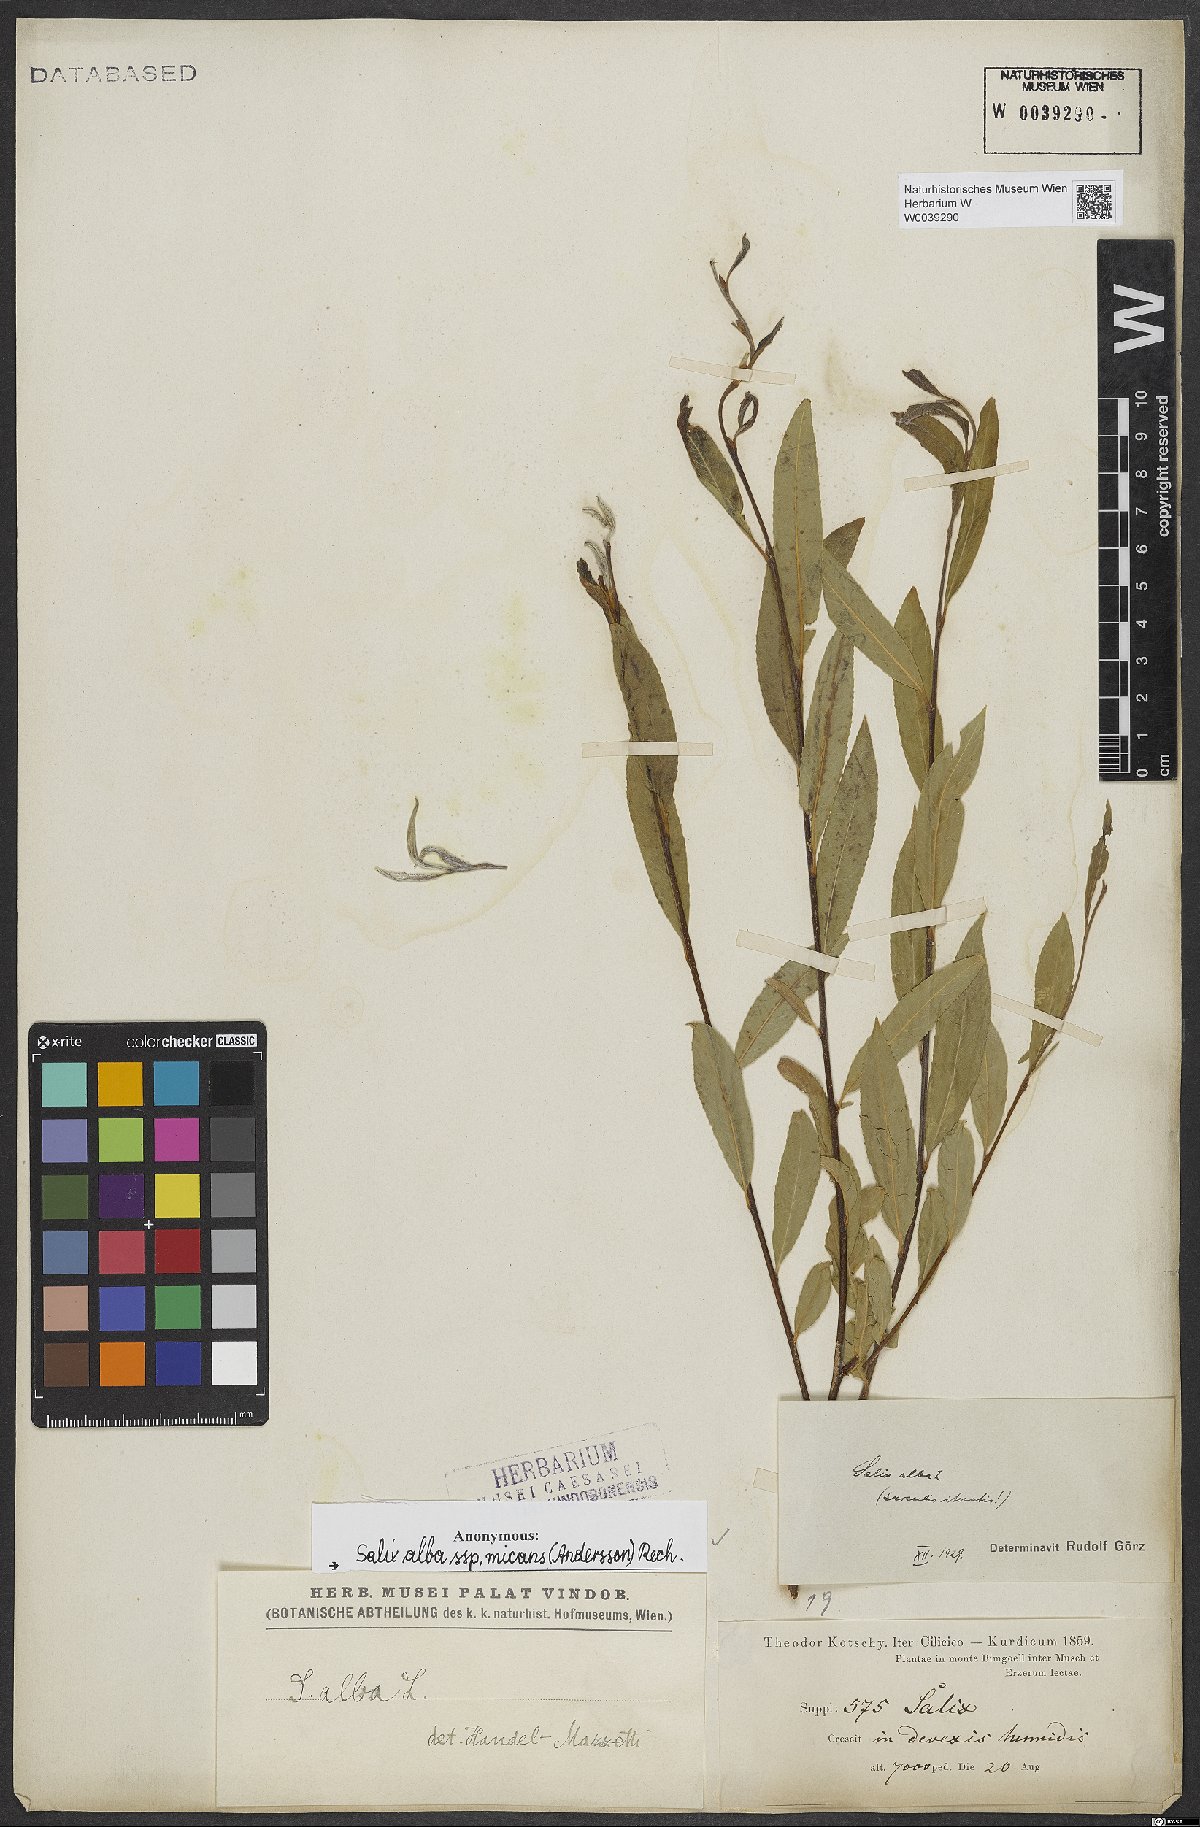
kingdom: Plantae
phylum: Tracheophyta
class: Magnoliopsida
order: Malpighiales
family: Salicaceae
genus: Salix
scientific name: Salix alba
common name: White willow
